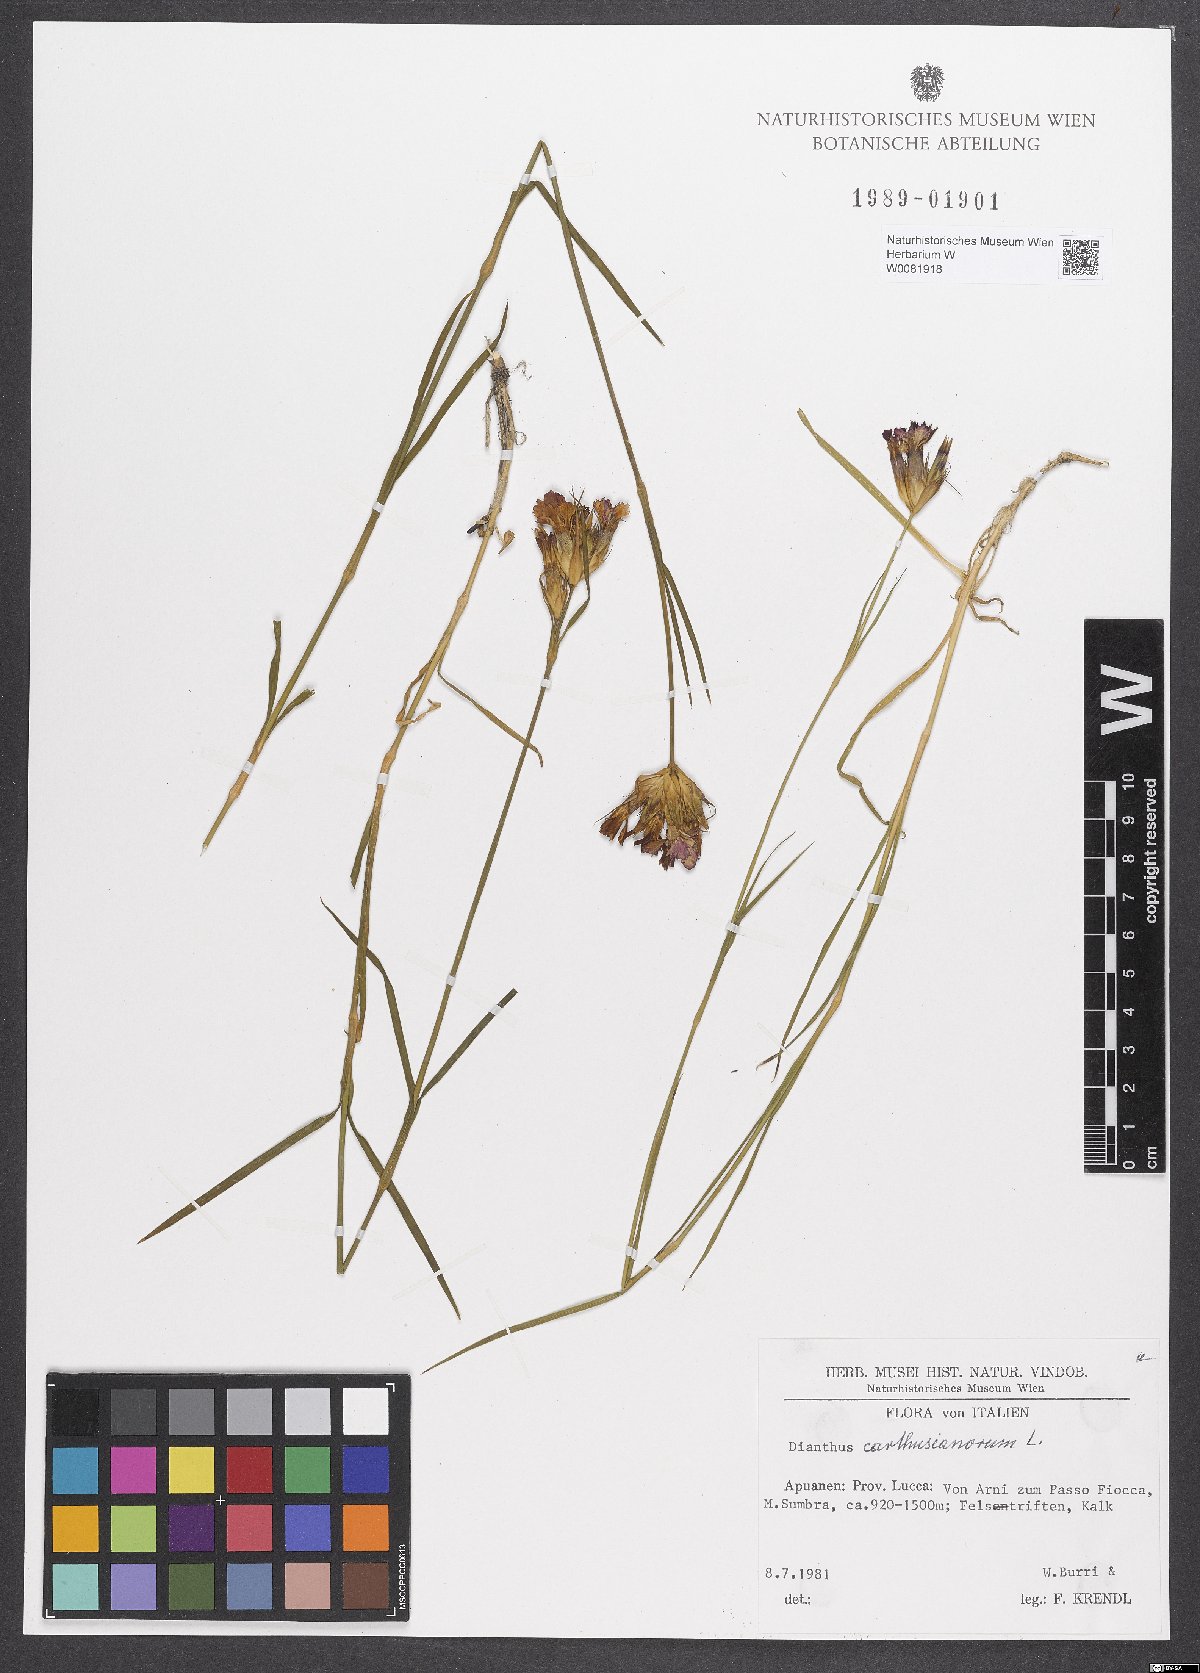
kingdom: Plantae
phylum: Tracheophyta
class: Magnoliopsida
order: Caryophyllales
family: Caryophyllaceae
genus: Dianthus
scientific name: Dianthus carthusianorum
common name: Carthusian pink
